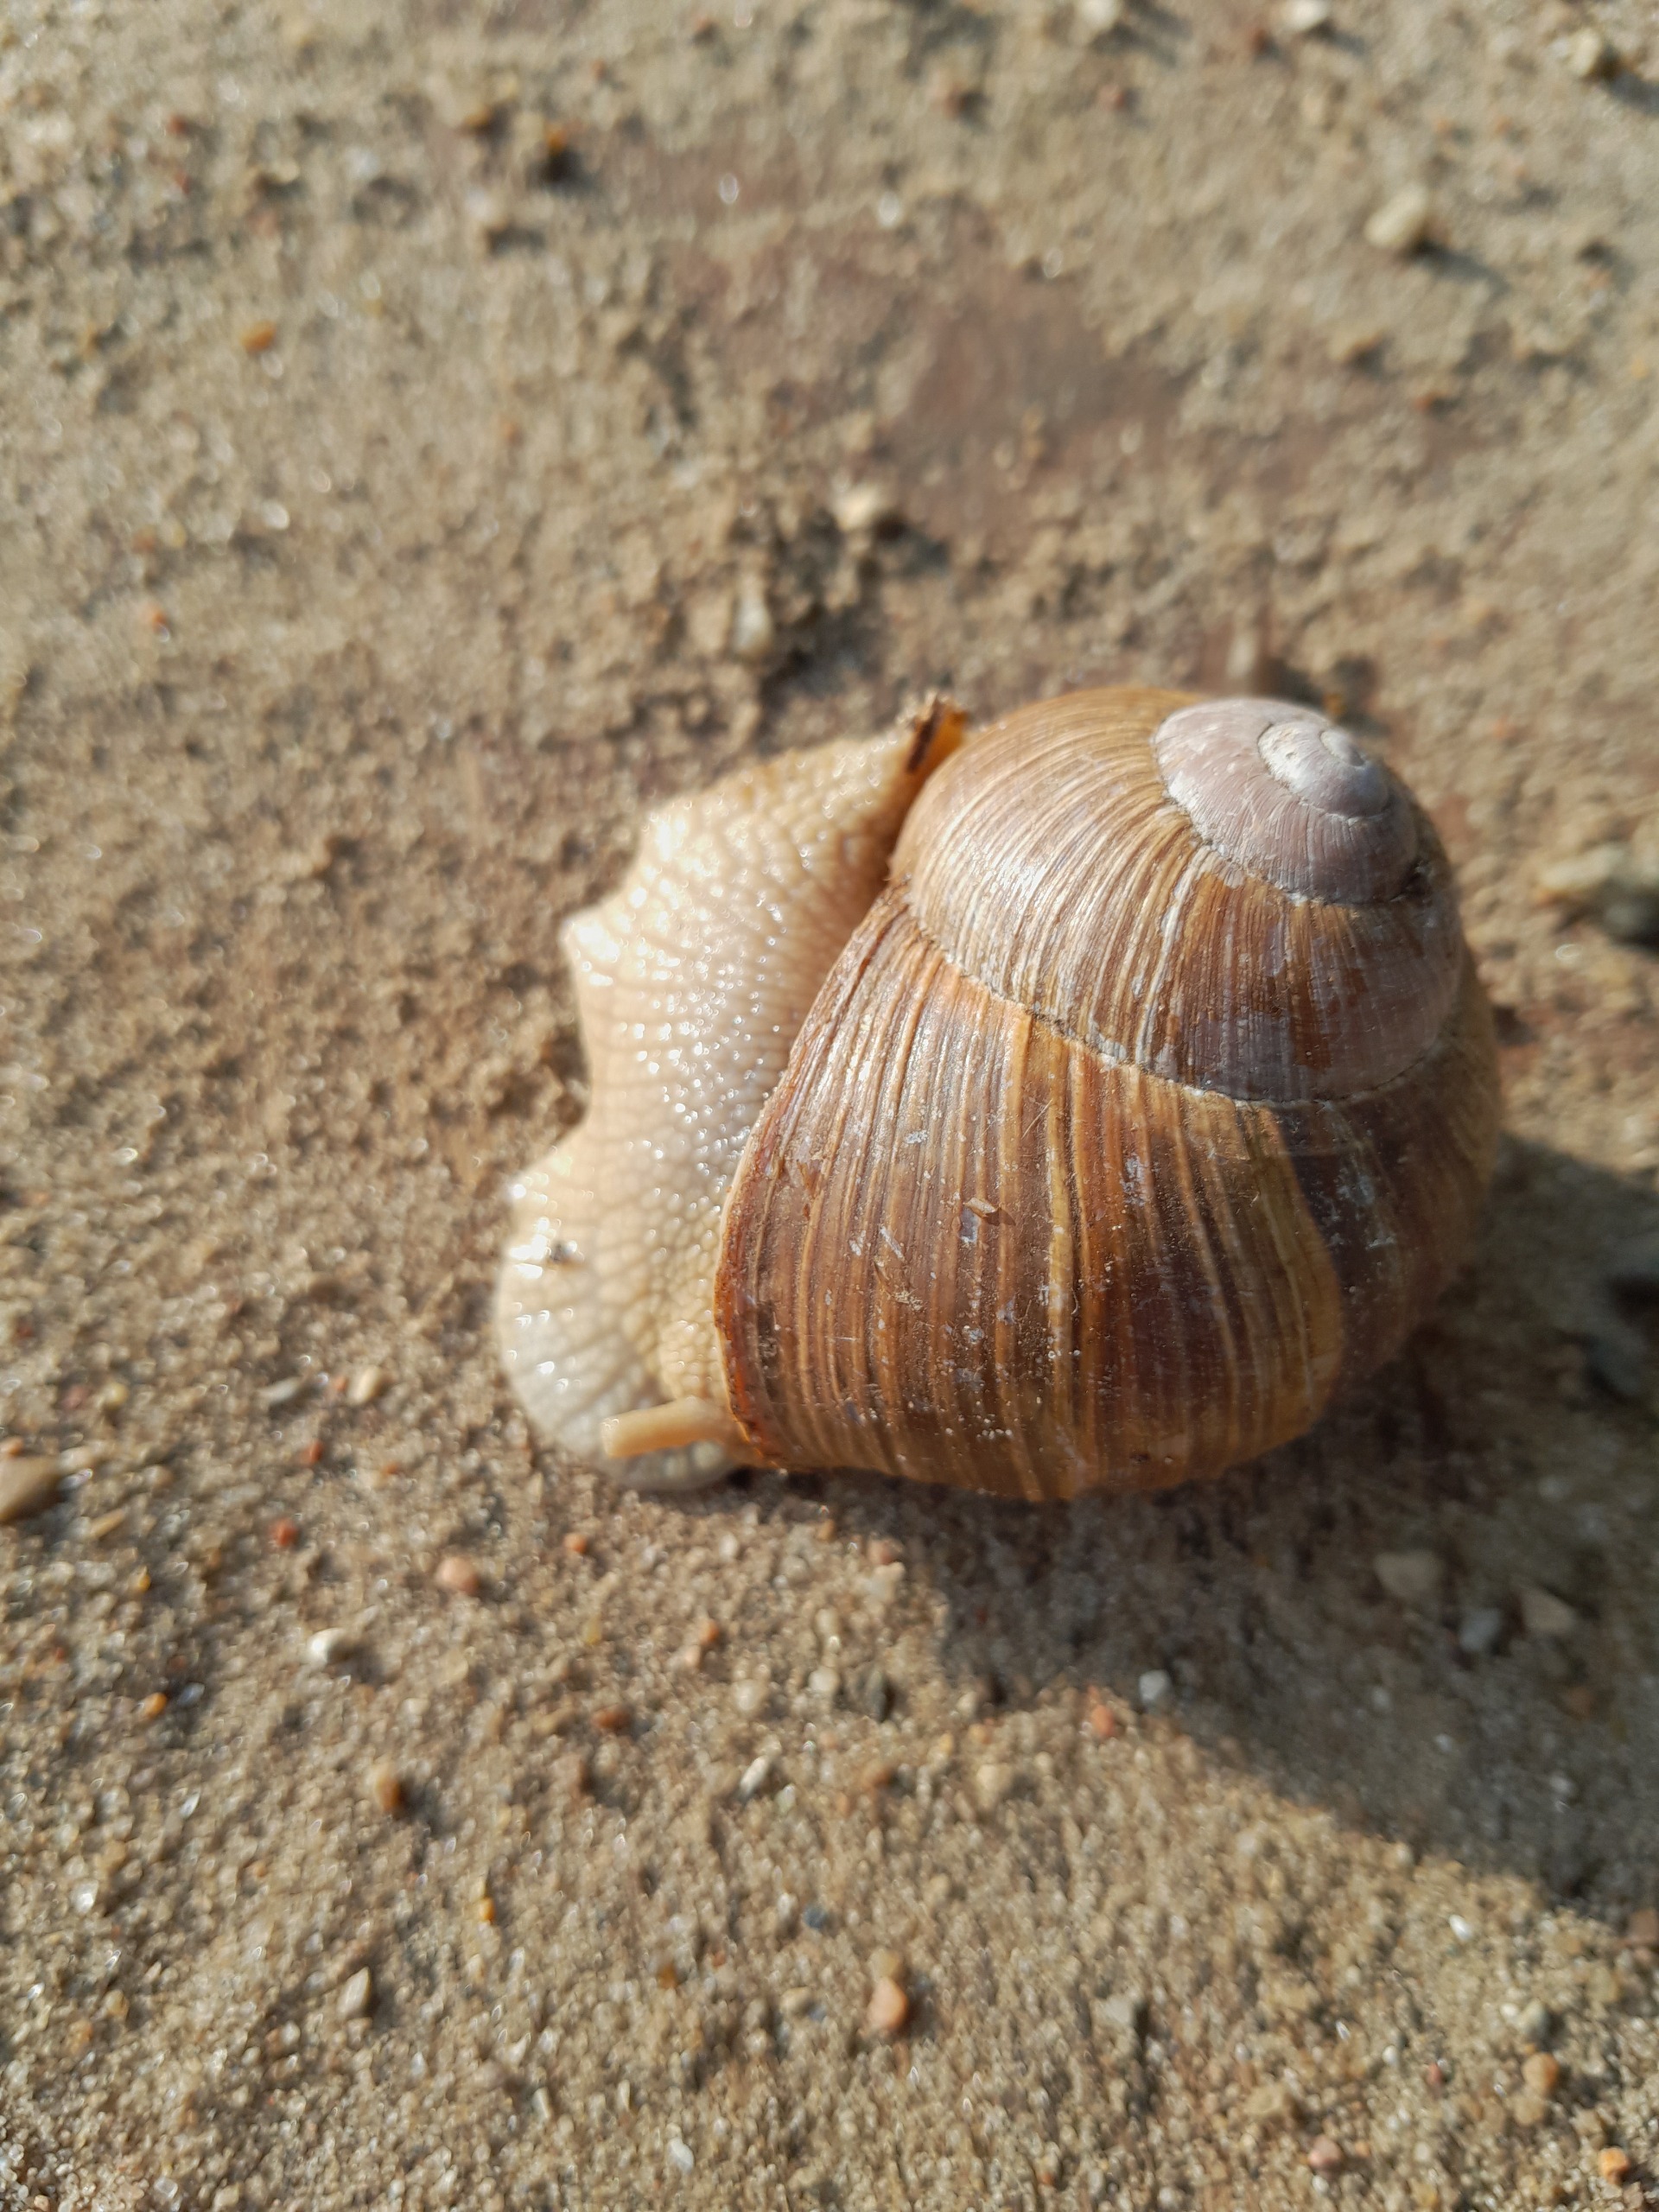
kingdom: Animalia
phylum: Mollusca
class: Gastropoda
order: Stylommatophora
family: Helicidae
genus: Helix
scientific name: Helix pomatia
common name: Vinbjergsnegl
